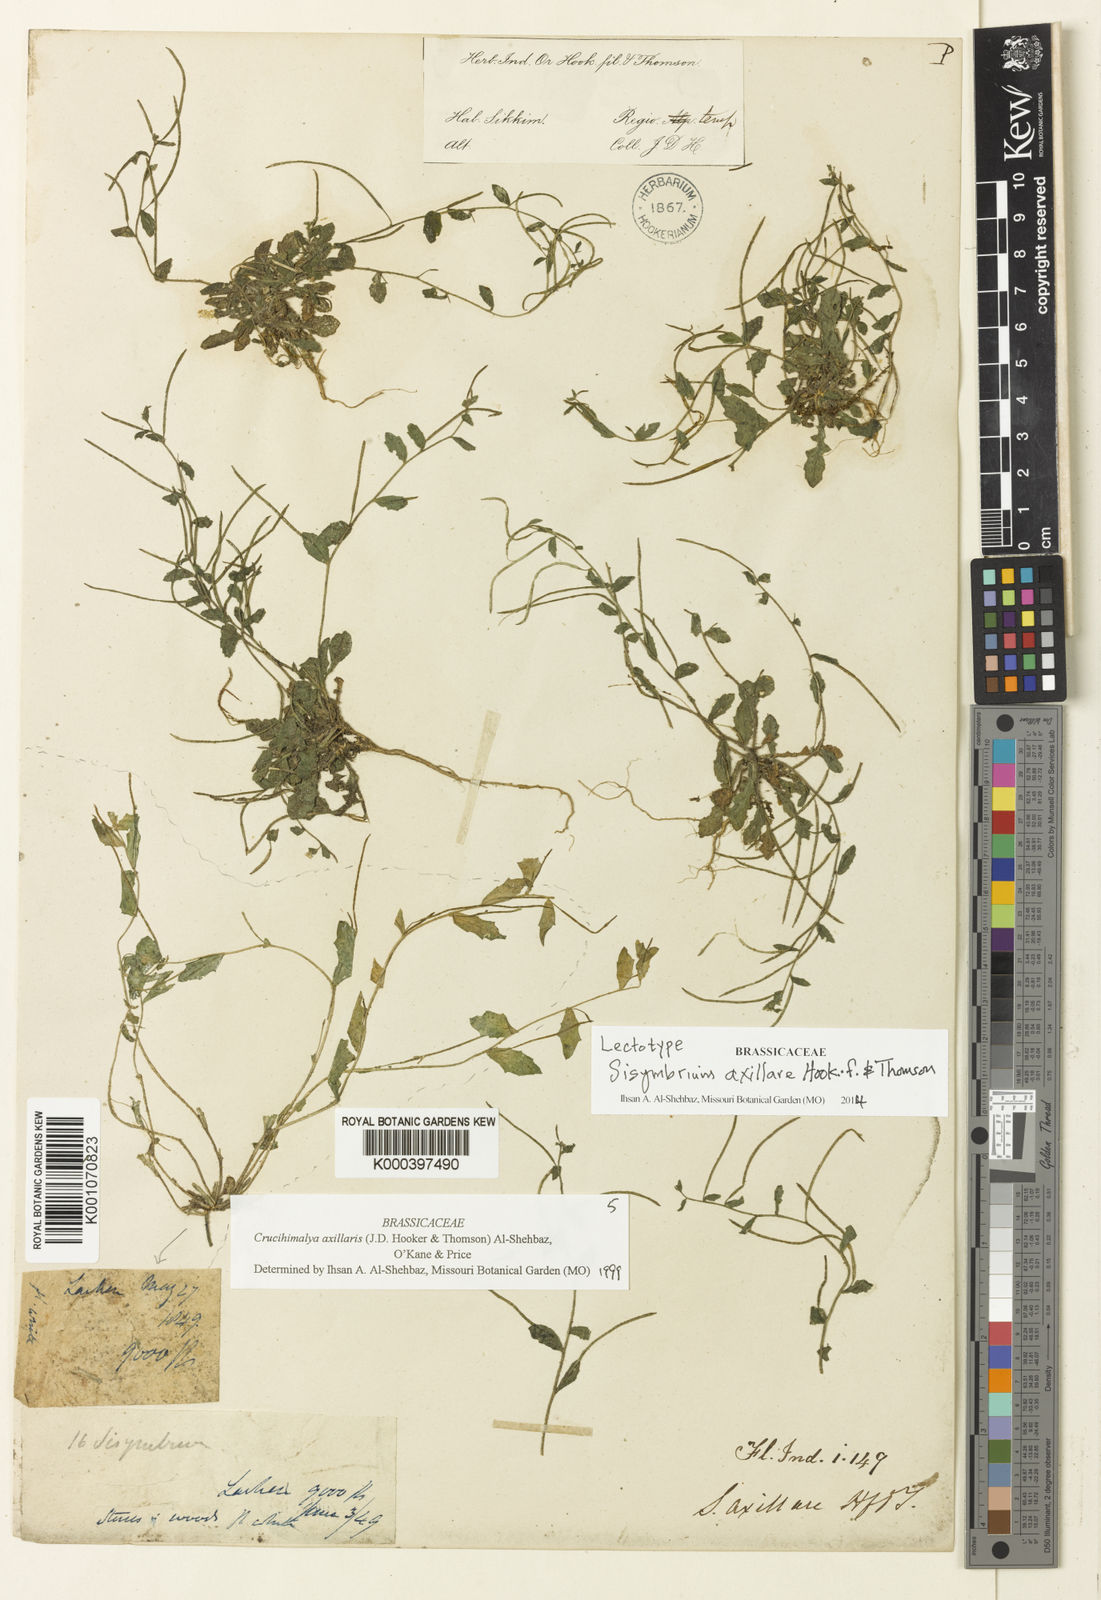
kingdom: Plantae
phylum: Tracheophyta
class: Magnoliopsida
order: Brassicales
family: Brassicaceae
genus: Crucihimalaya
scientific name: Crucihimalaya axillaris
